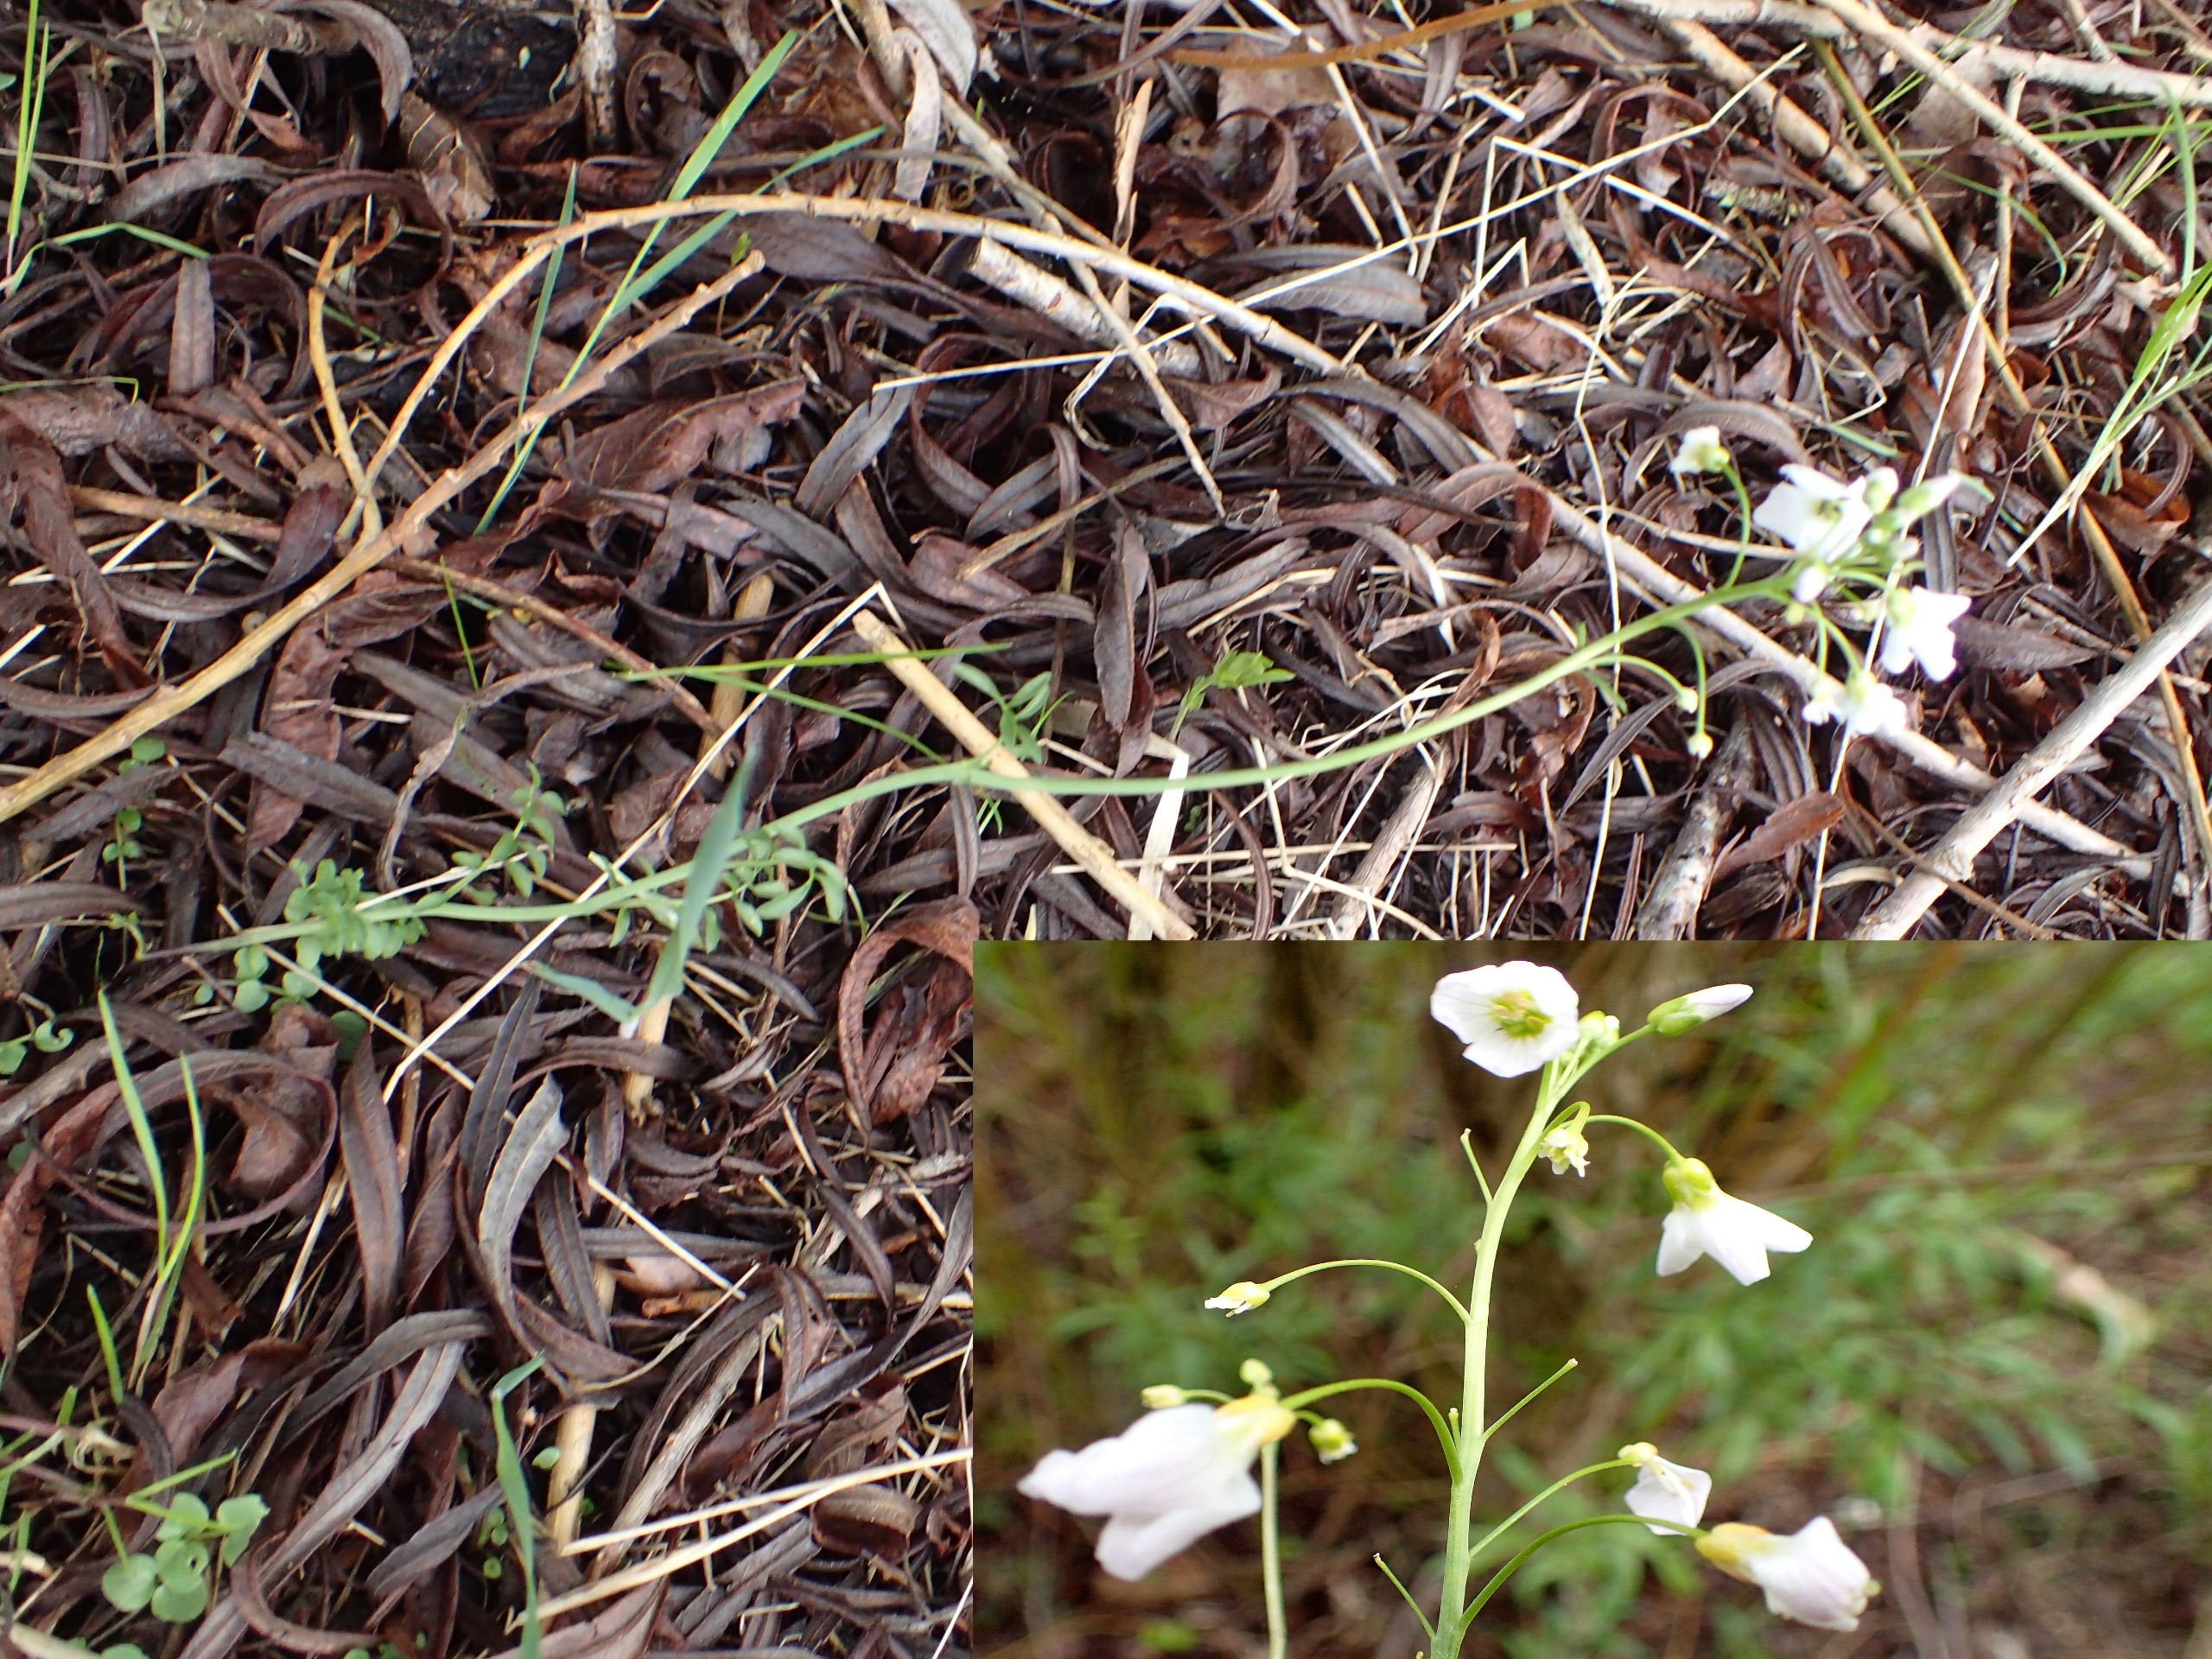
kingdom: Plantae
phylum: Tracheophyta
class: Magnoliopsida
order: Brassicales
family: Brassicaceae
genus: Cardamine
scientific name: Cardamine pratensis
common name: Almindelig engkarse
